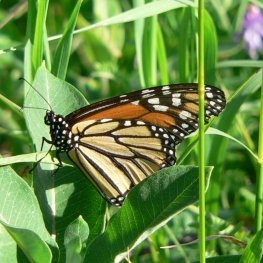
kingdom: Animalia
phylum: Arthropoda
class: Insecta
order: Lepidoptera
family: Nymphalidae
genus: Danaus
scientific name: Danaus plexippus
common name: Monarch
